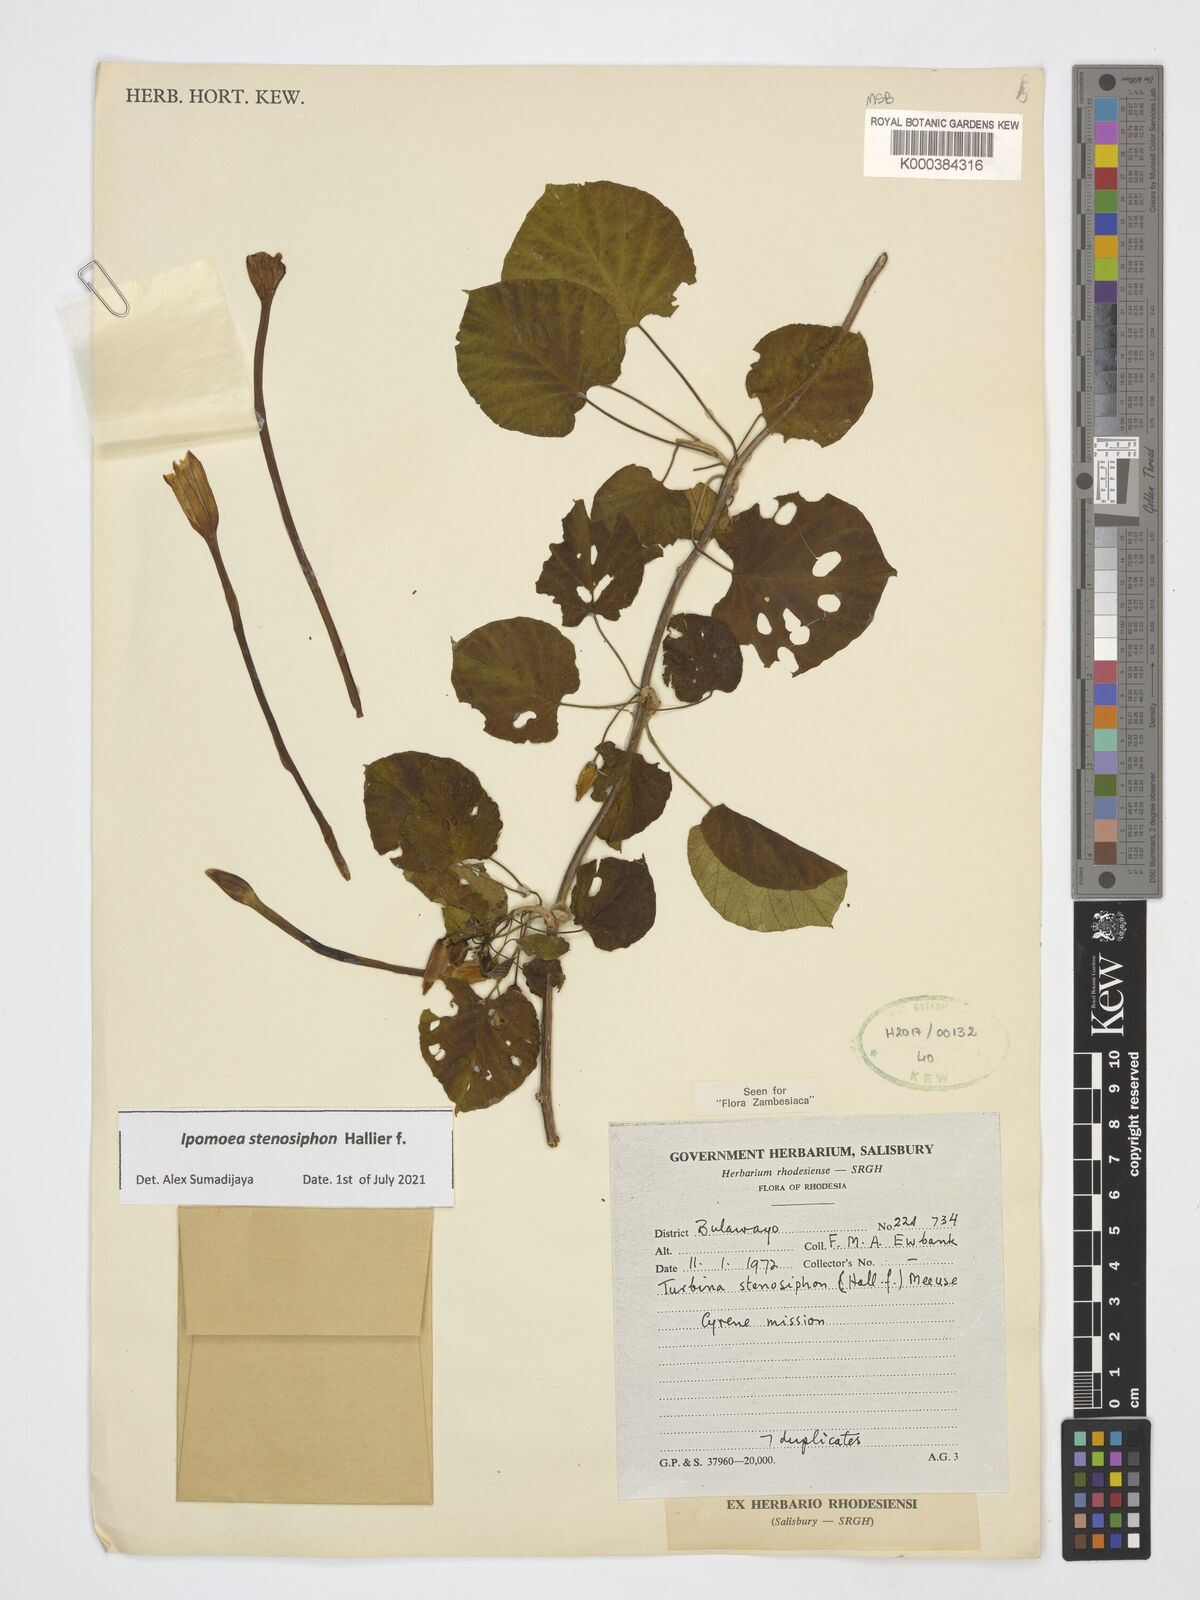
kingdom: Plantae
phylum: Tracheophyta
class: Magnoliopsida
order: Solanales
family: Convolvulaceae
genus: Ipomoea
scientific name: Ipomoea stenosiphon
